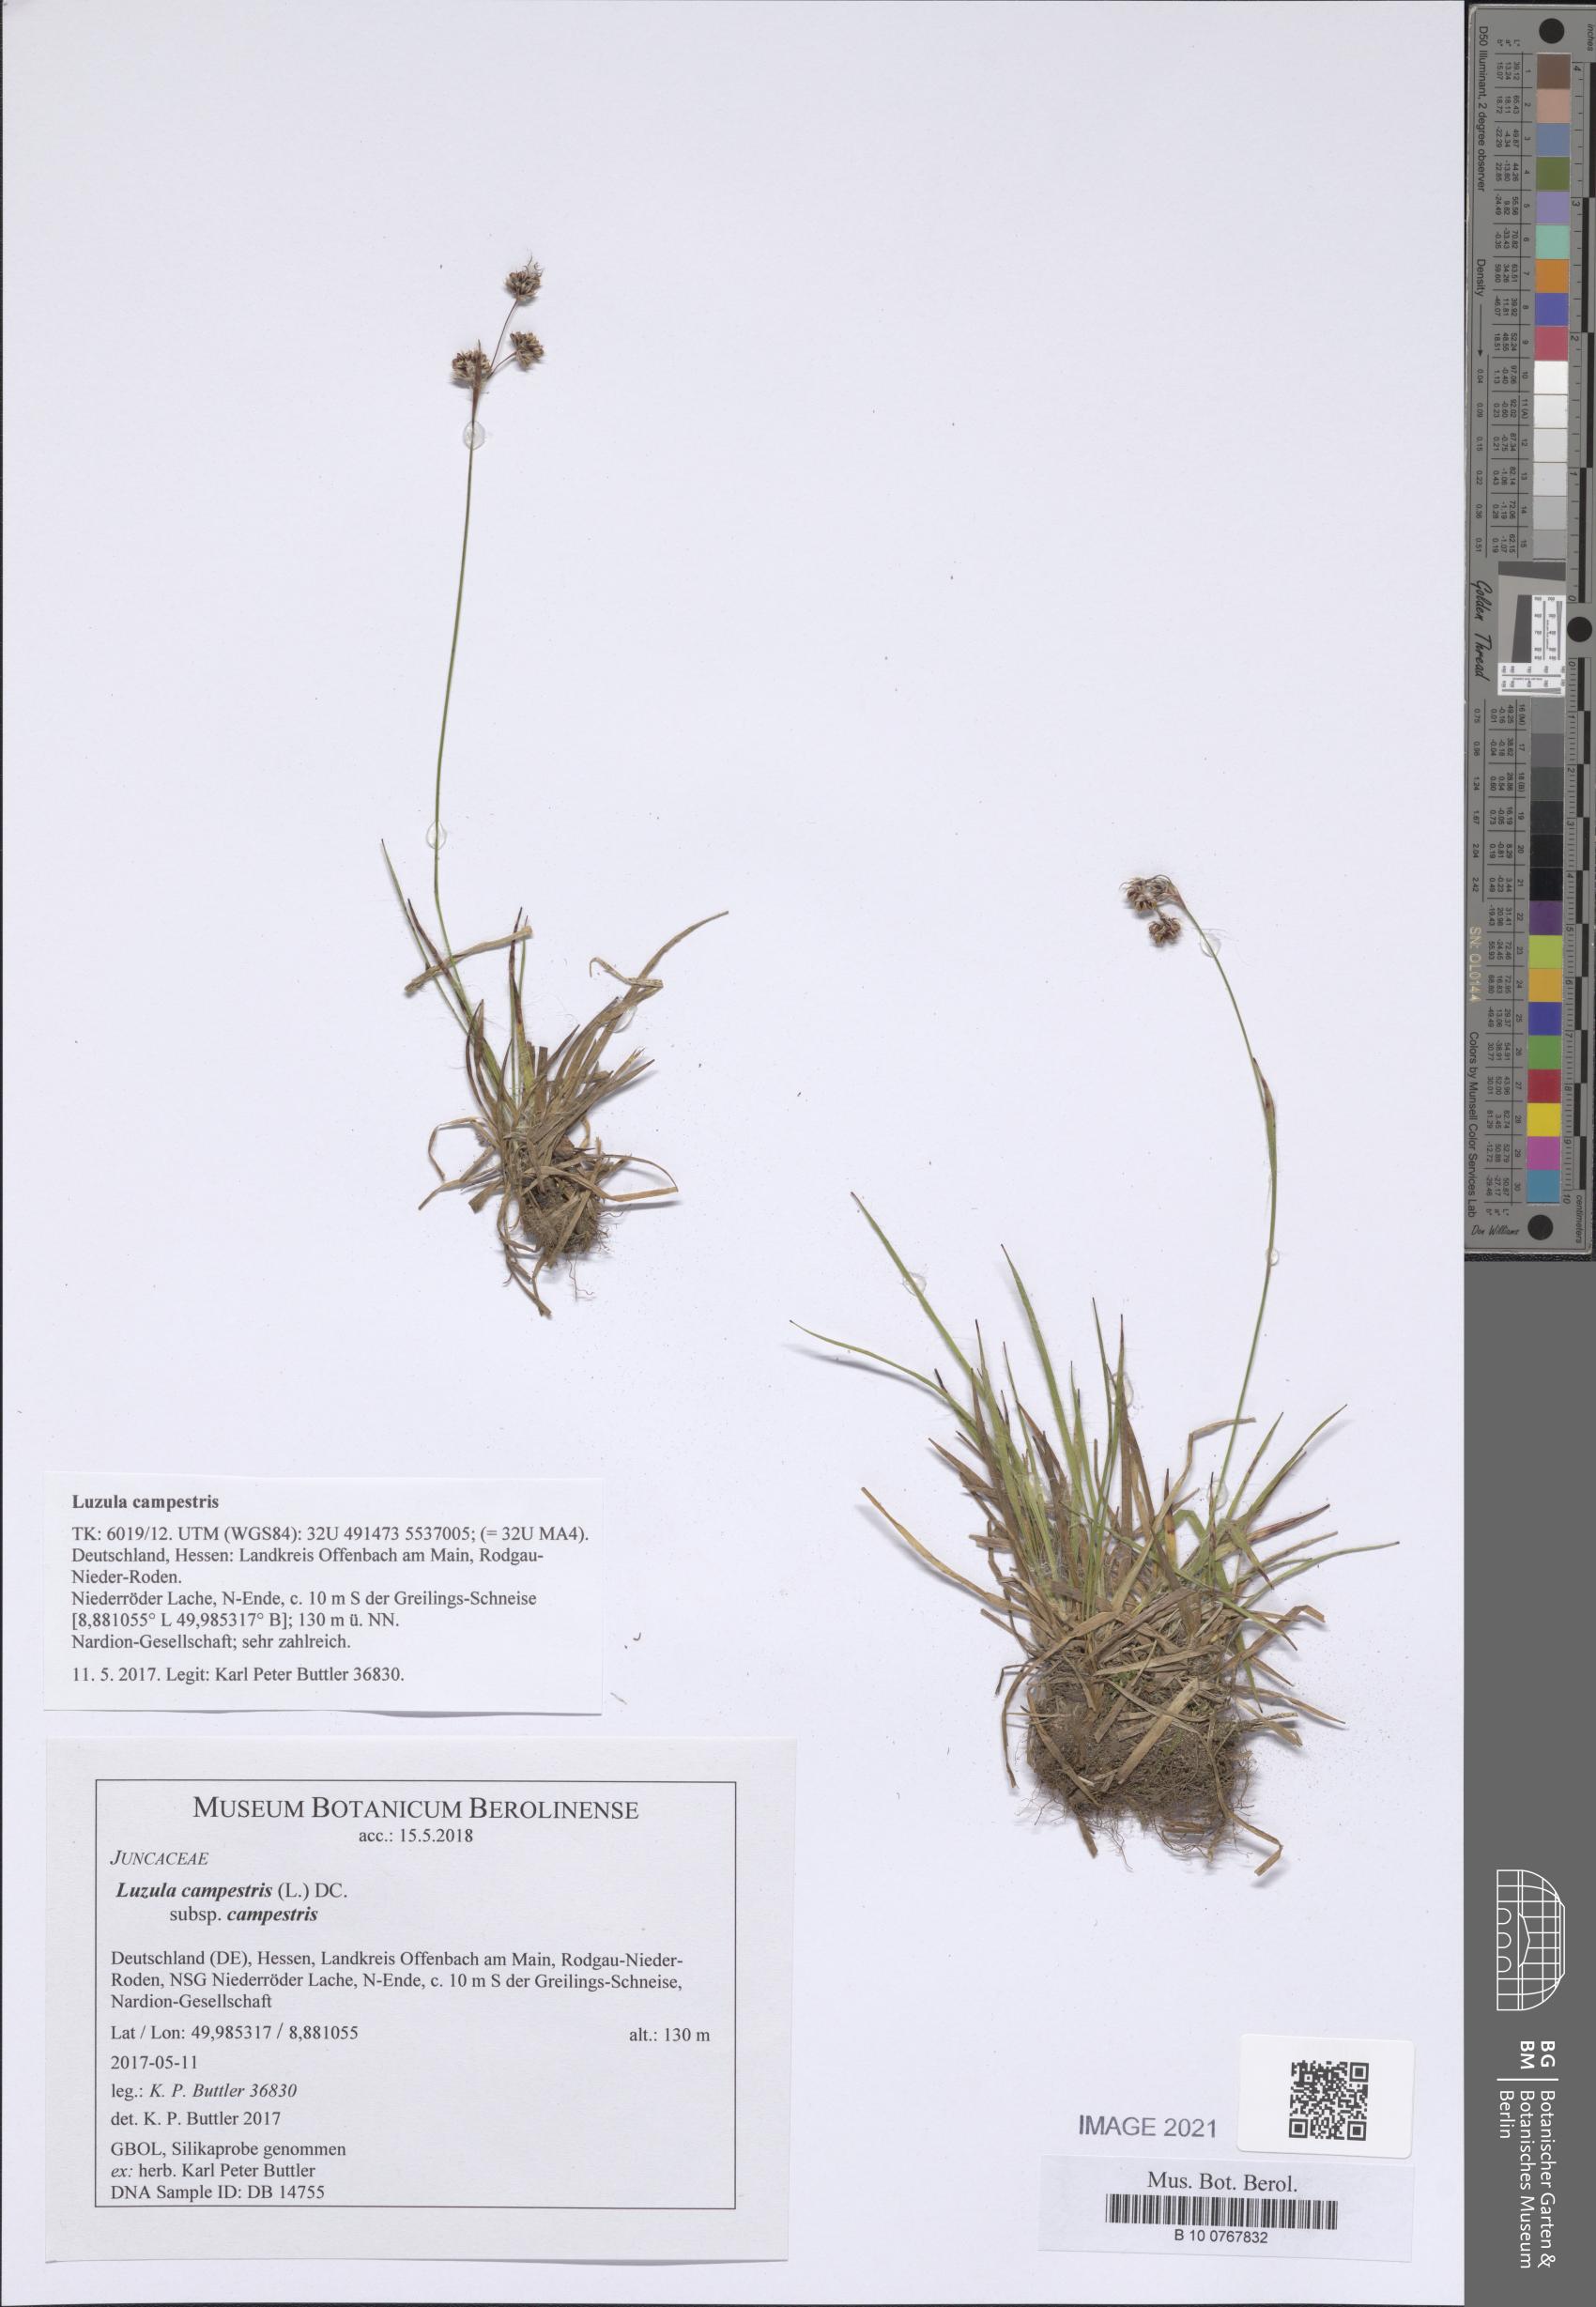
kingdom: Plantae
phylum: Tracheophyta
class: Liliopsida
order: Poales
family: Juncaceae
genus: Luzula
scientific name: Luzula campestris
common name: Field wood-rush
